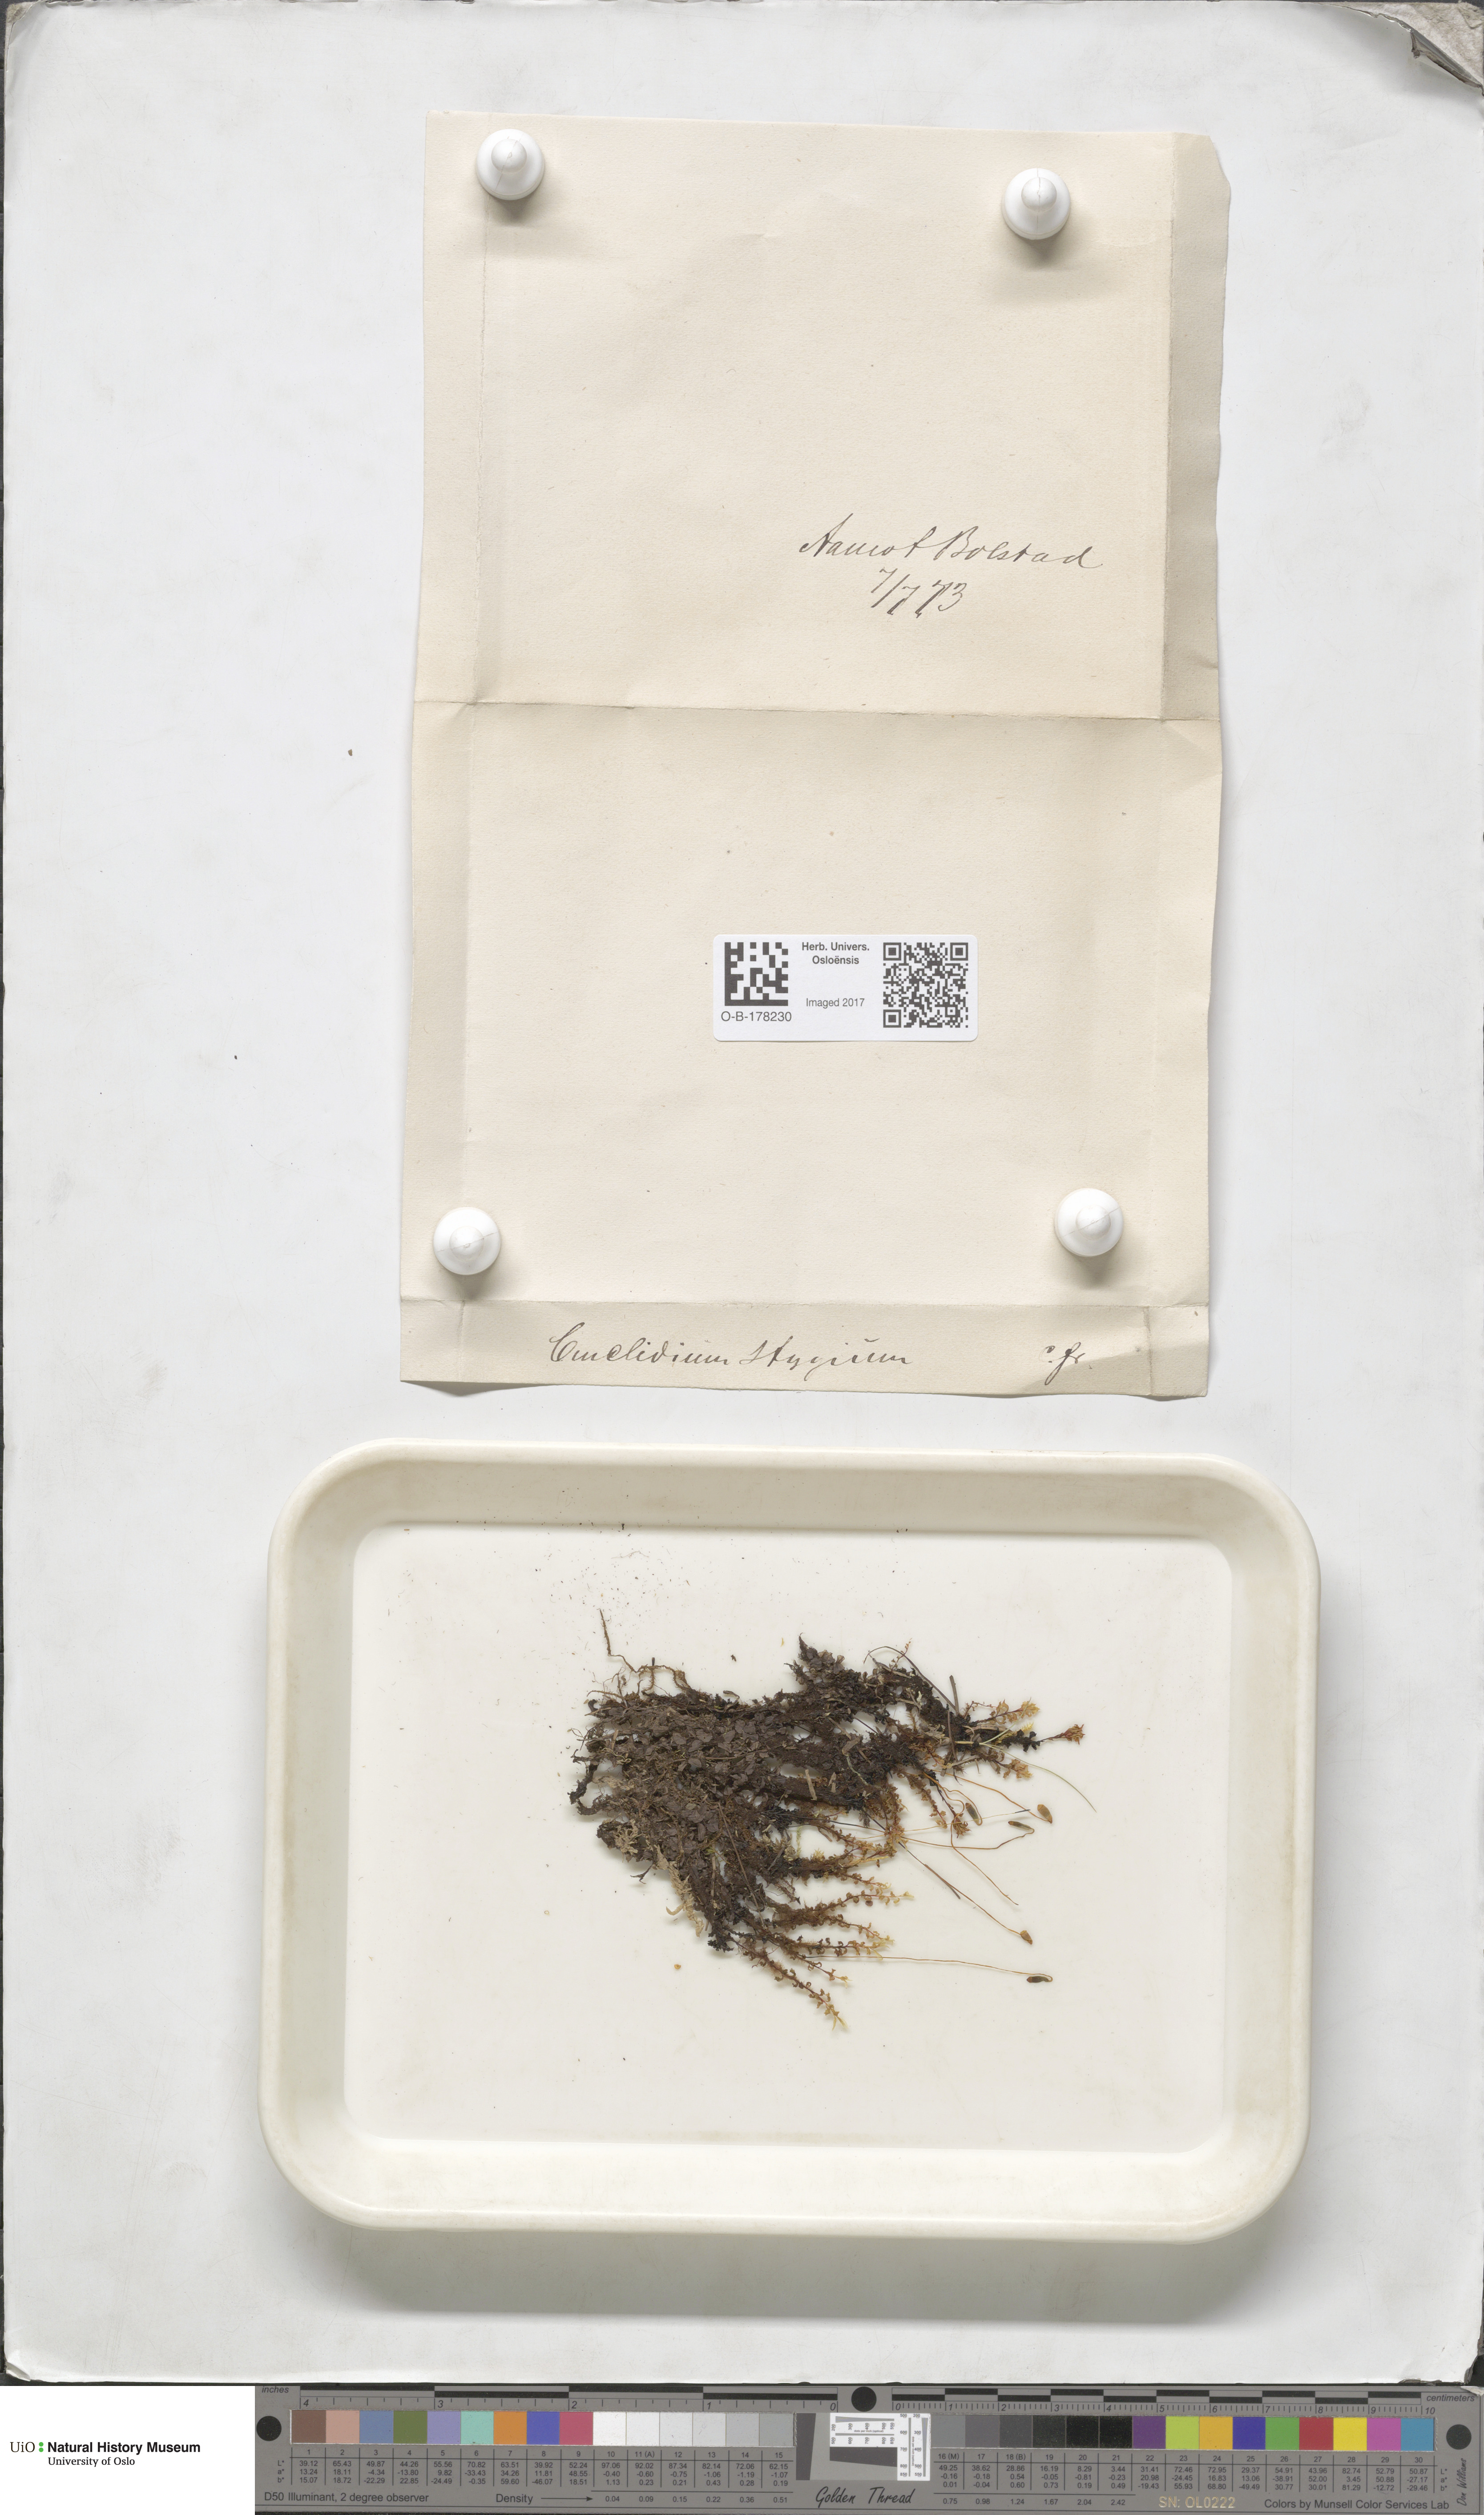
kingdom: Plantae
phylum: Bryophyta
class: Bryopsida
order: Bryales
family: Mniaceae
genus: Cinclidium
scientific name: Cinclidium stygium
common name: Sooty cupola moss
